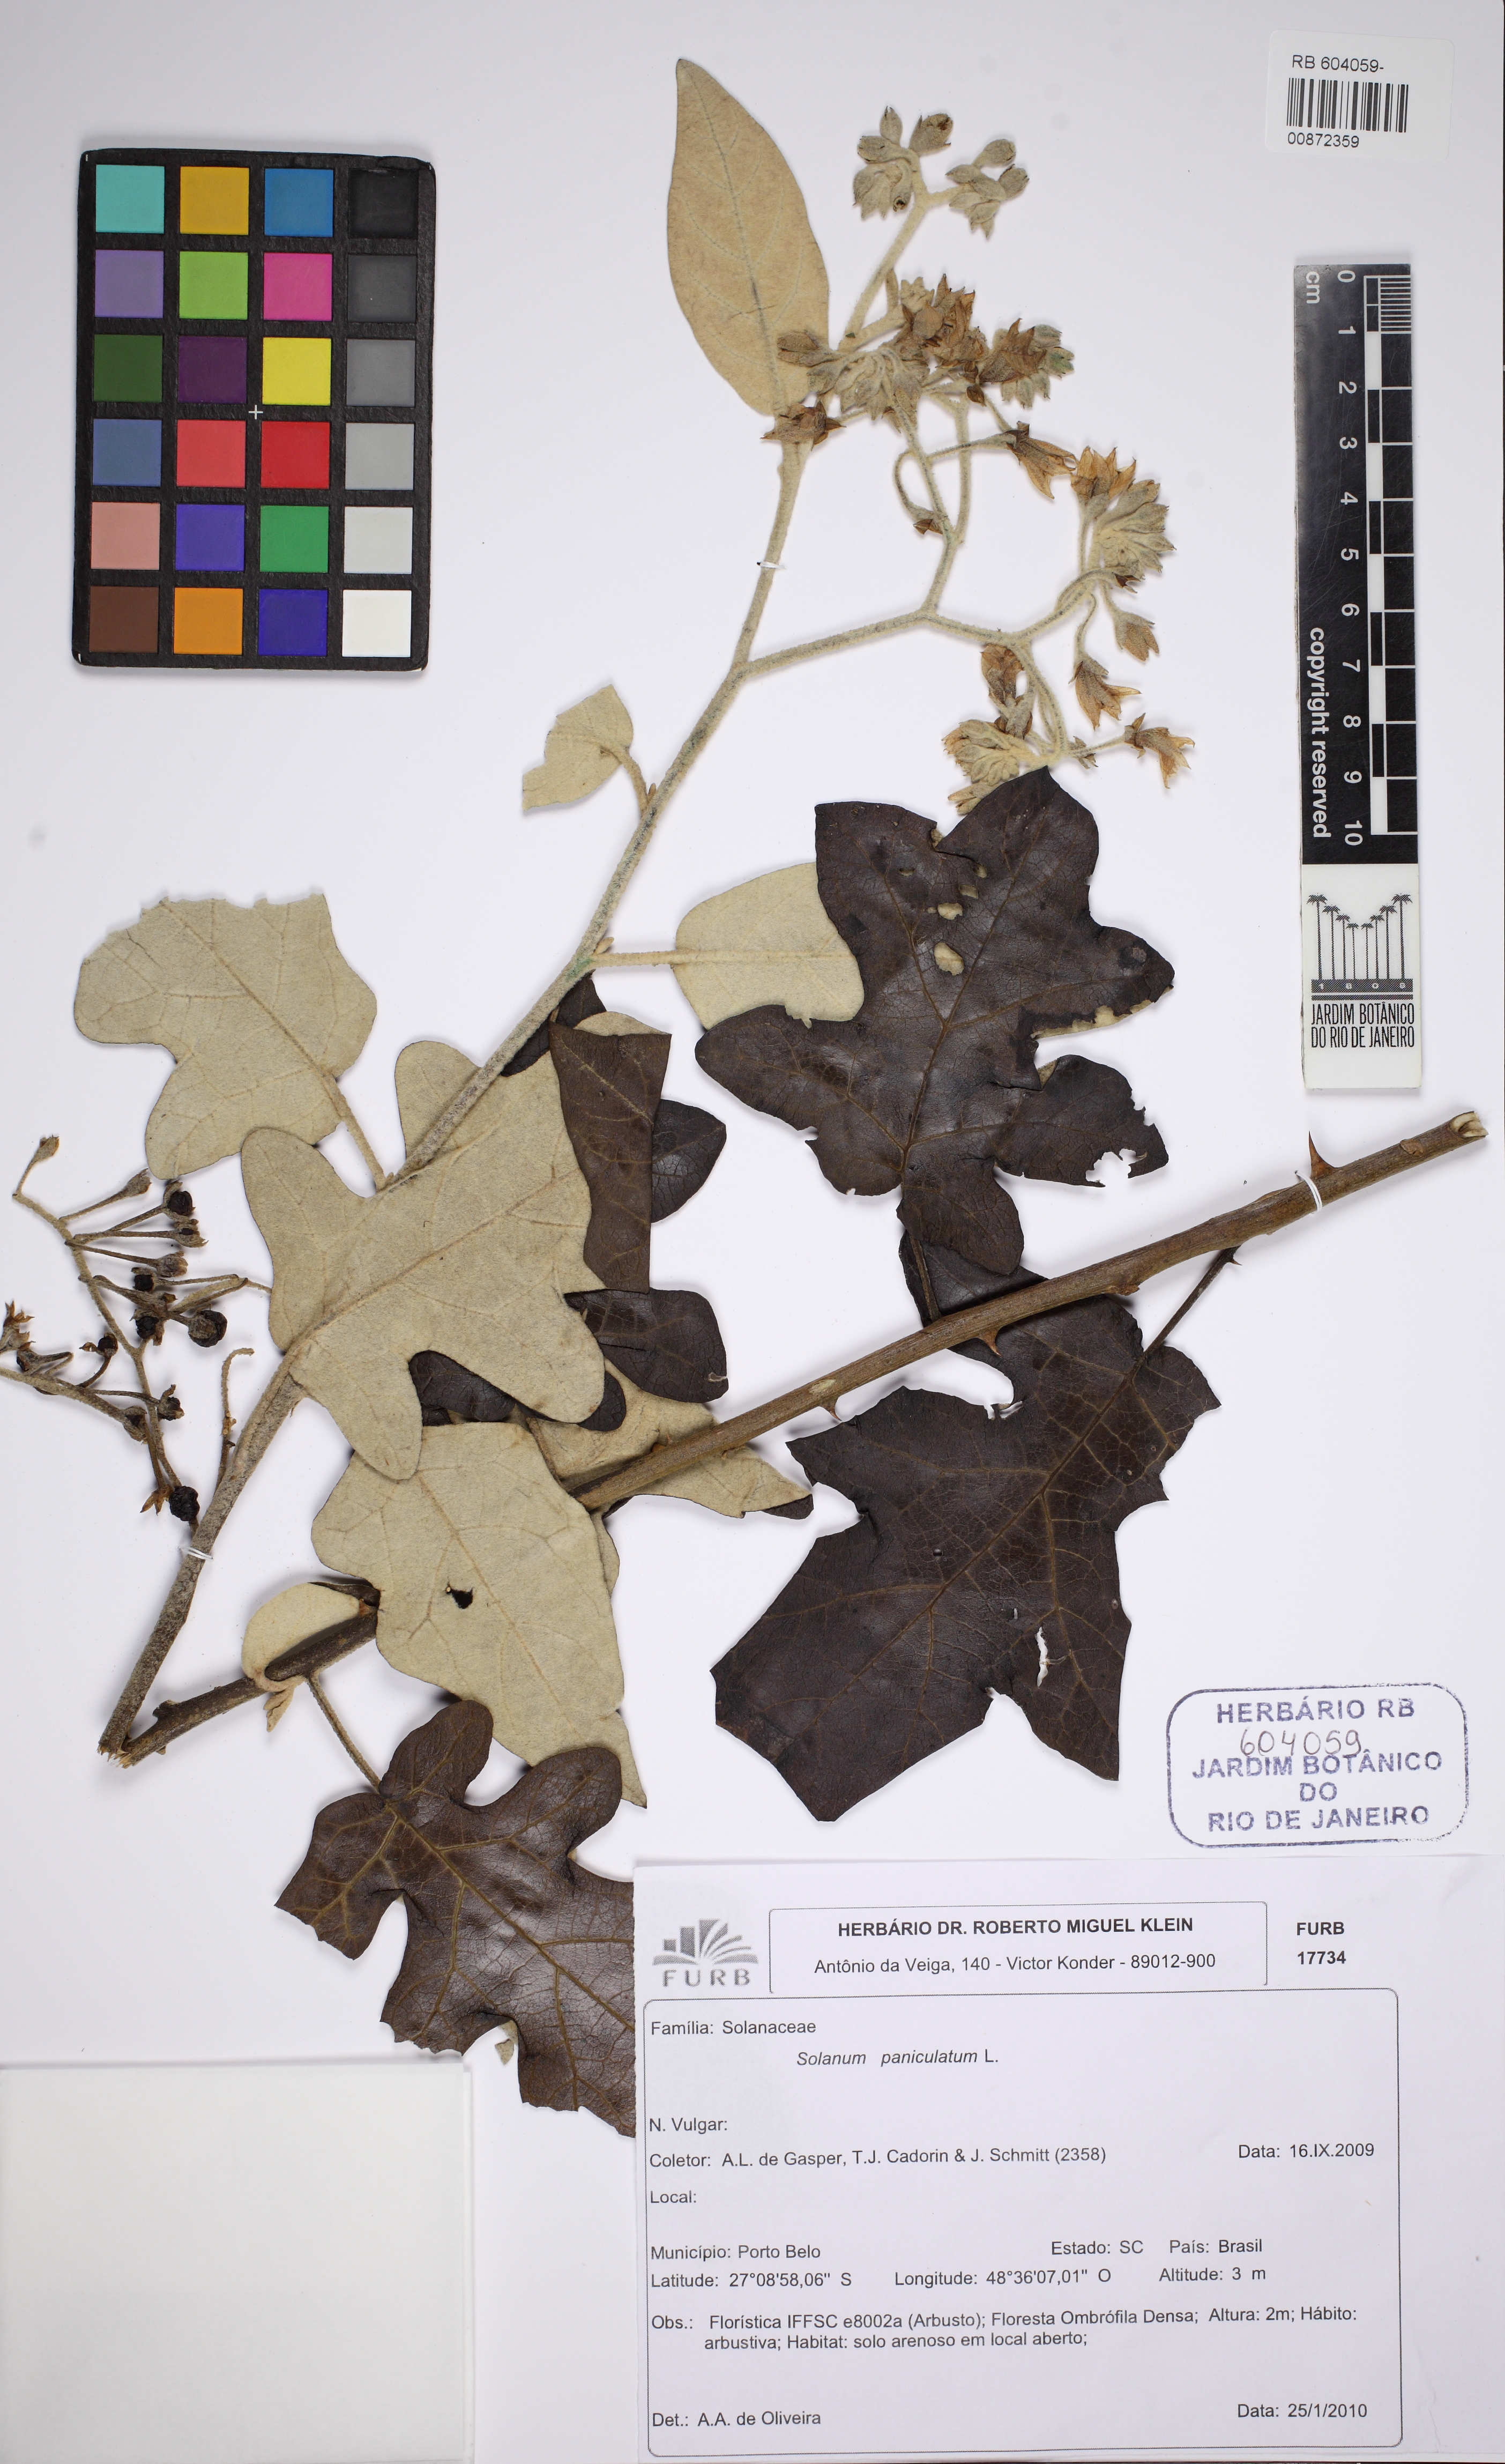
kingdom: Plantae
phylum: Tracheophyta
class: Magnoliopsida
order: Solanales
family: Solanaceae
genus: Solanum
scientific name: Solanum paniculatum
